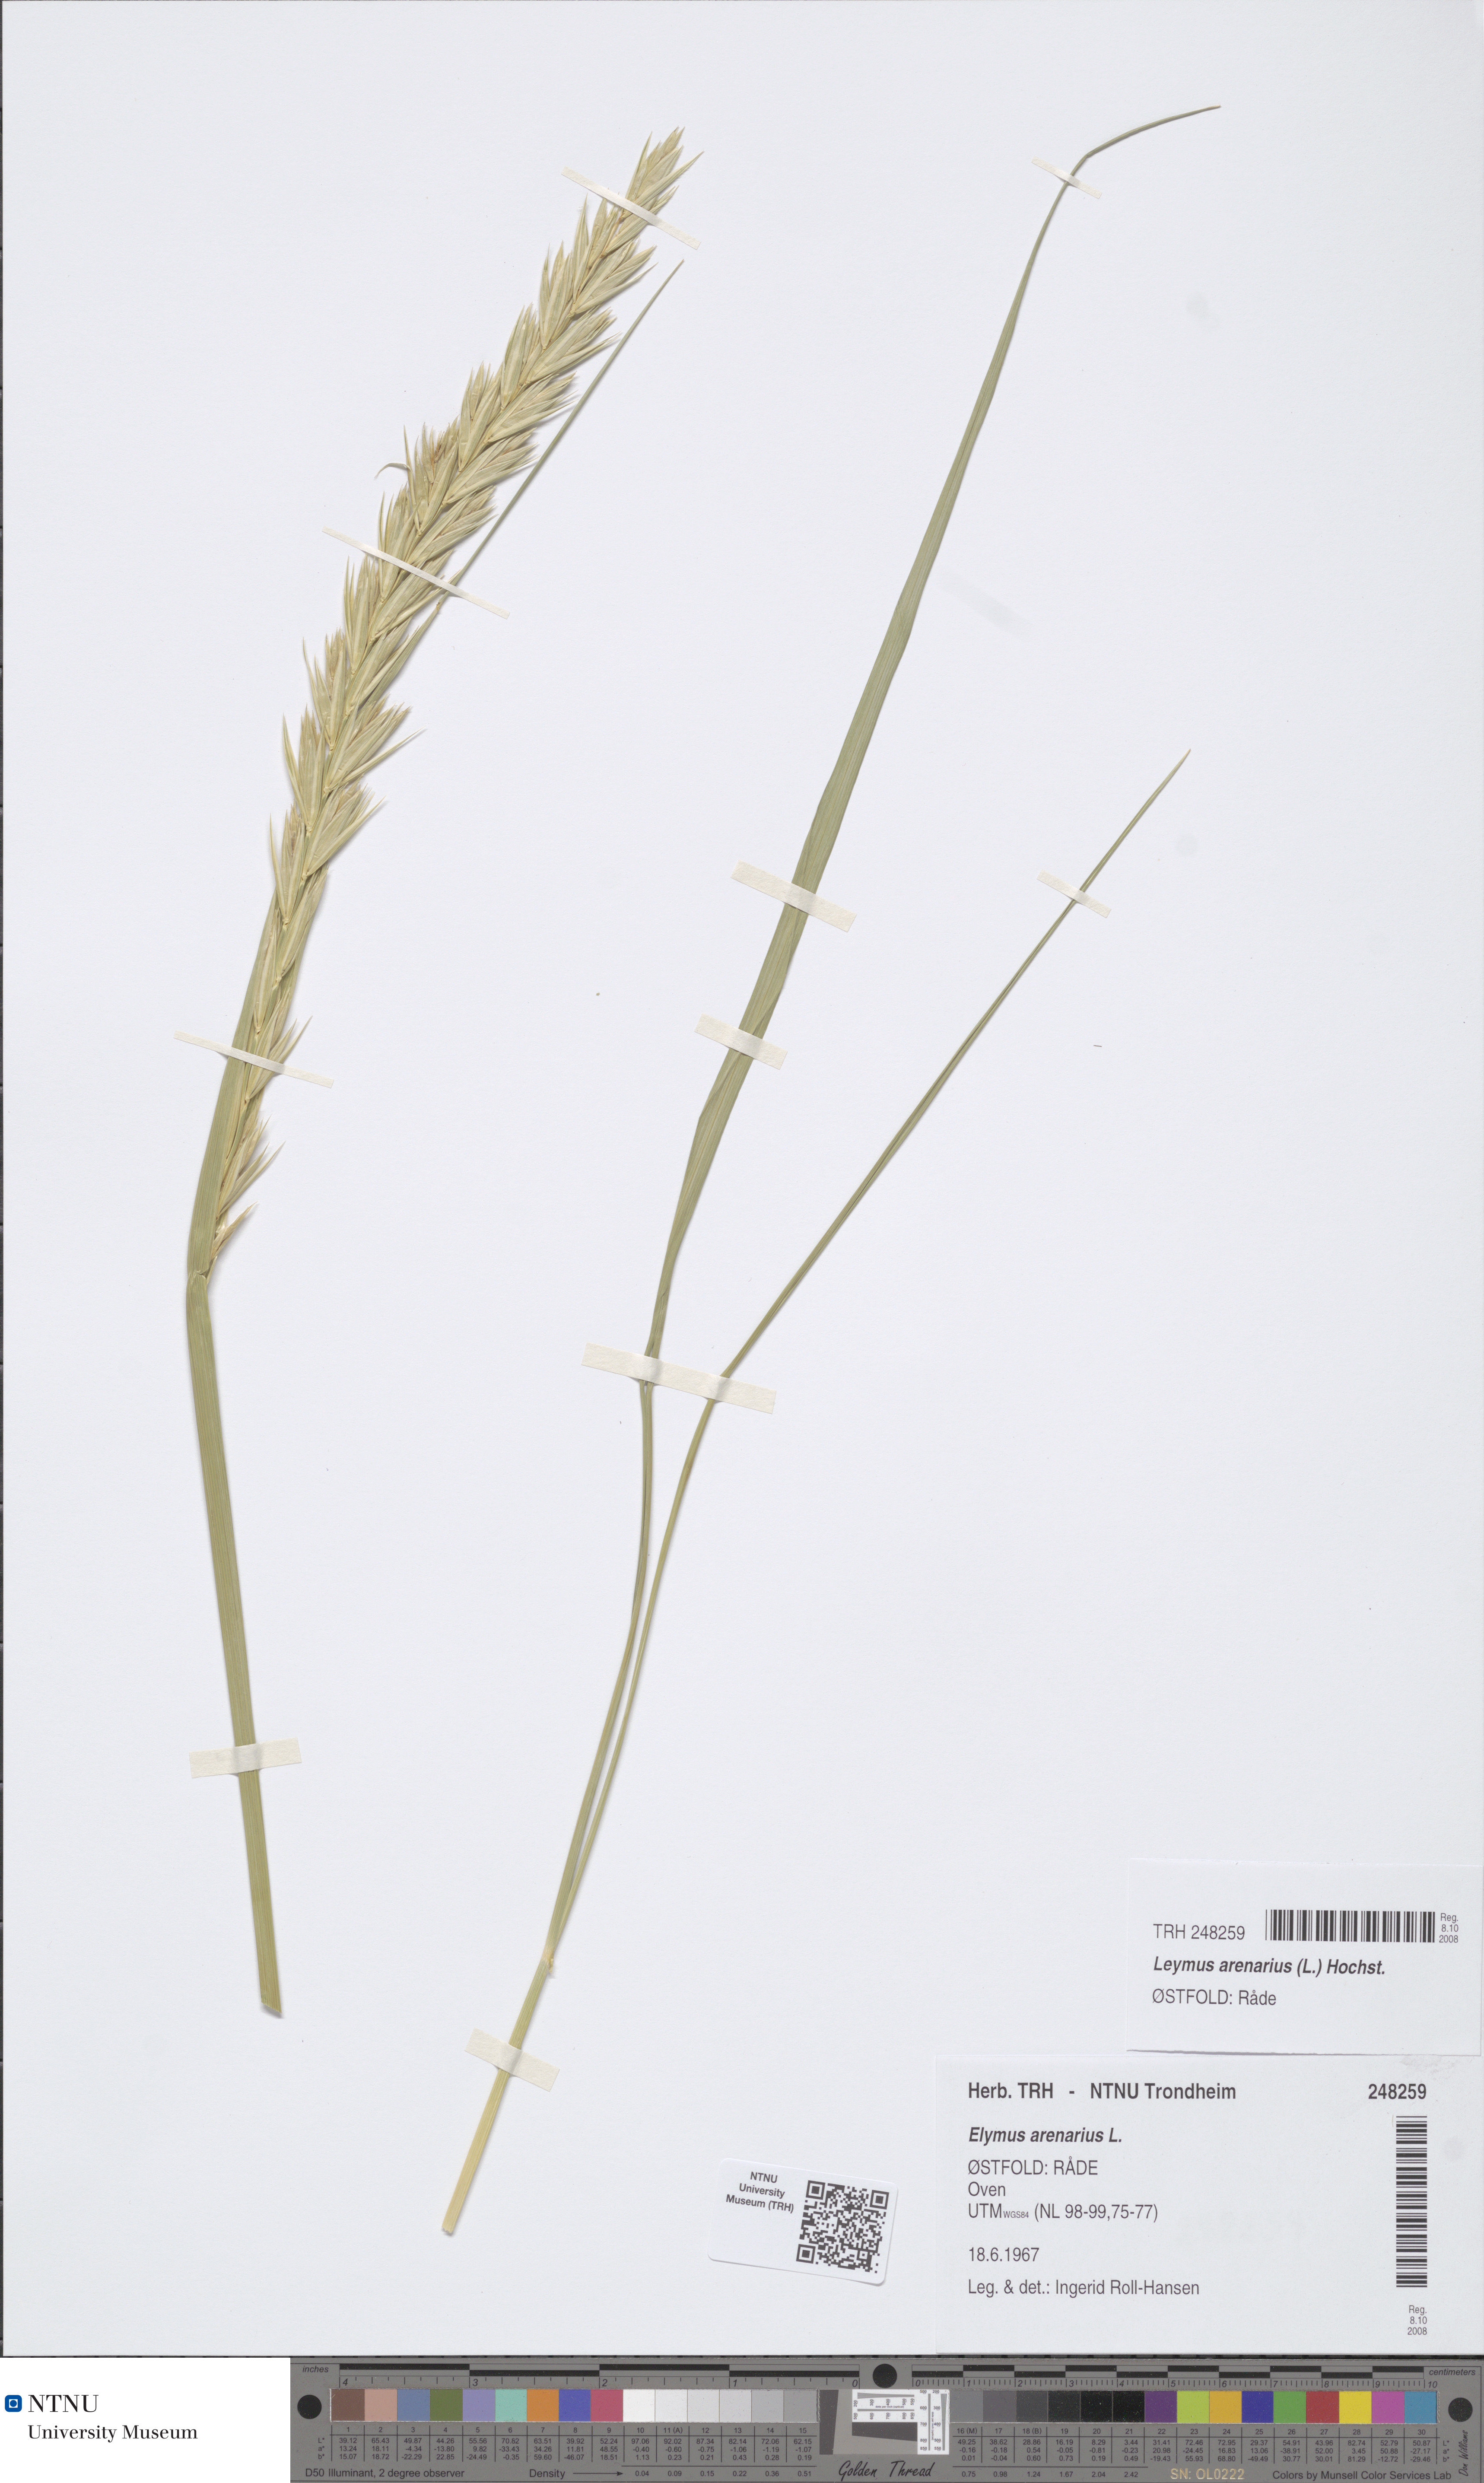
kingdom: Plantae
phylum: Tracheophyta
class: Liliopsida
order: Poales
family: Poaceae
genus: Leymus
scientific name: Leymus arenarius
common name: Lyme-grass
